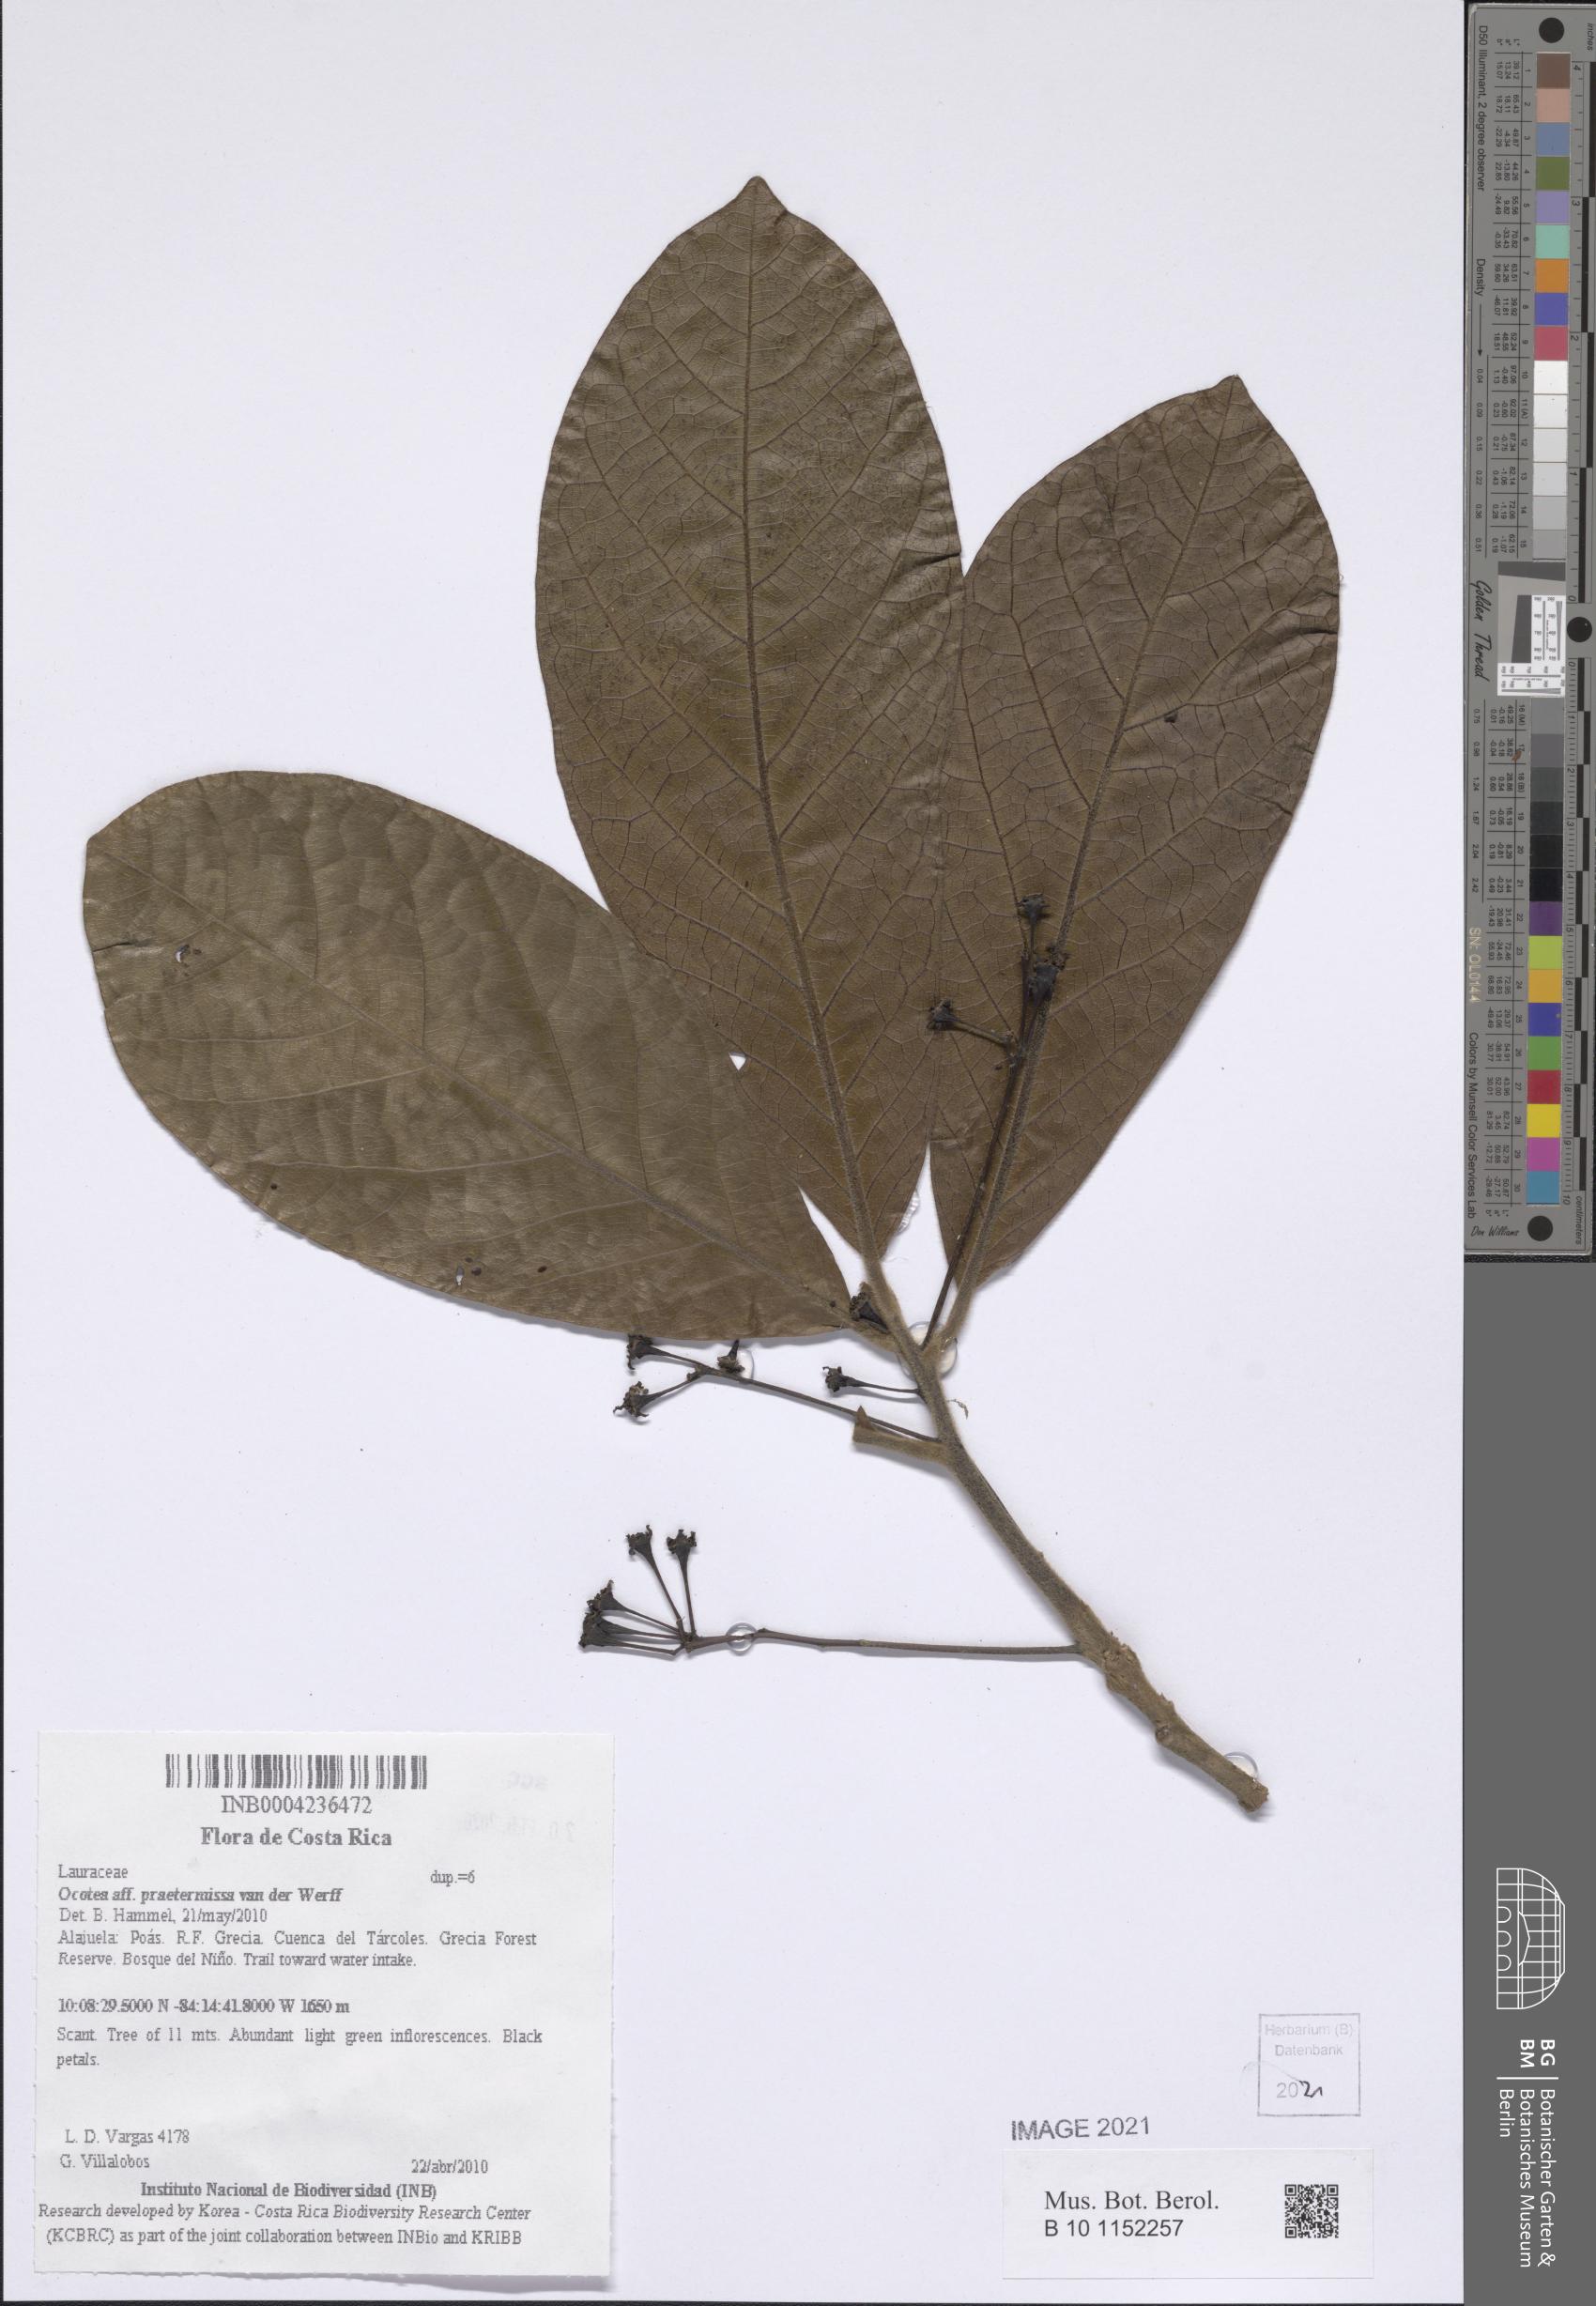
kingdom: Plantae
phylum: Tracheophyta
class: Magnoliopsida
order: Laurales
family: Lauraceae
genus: Ocotea
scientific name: Ocotea praetermissa
